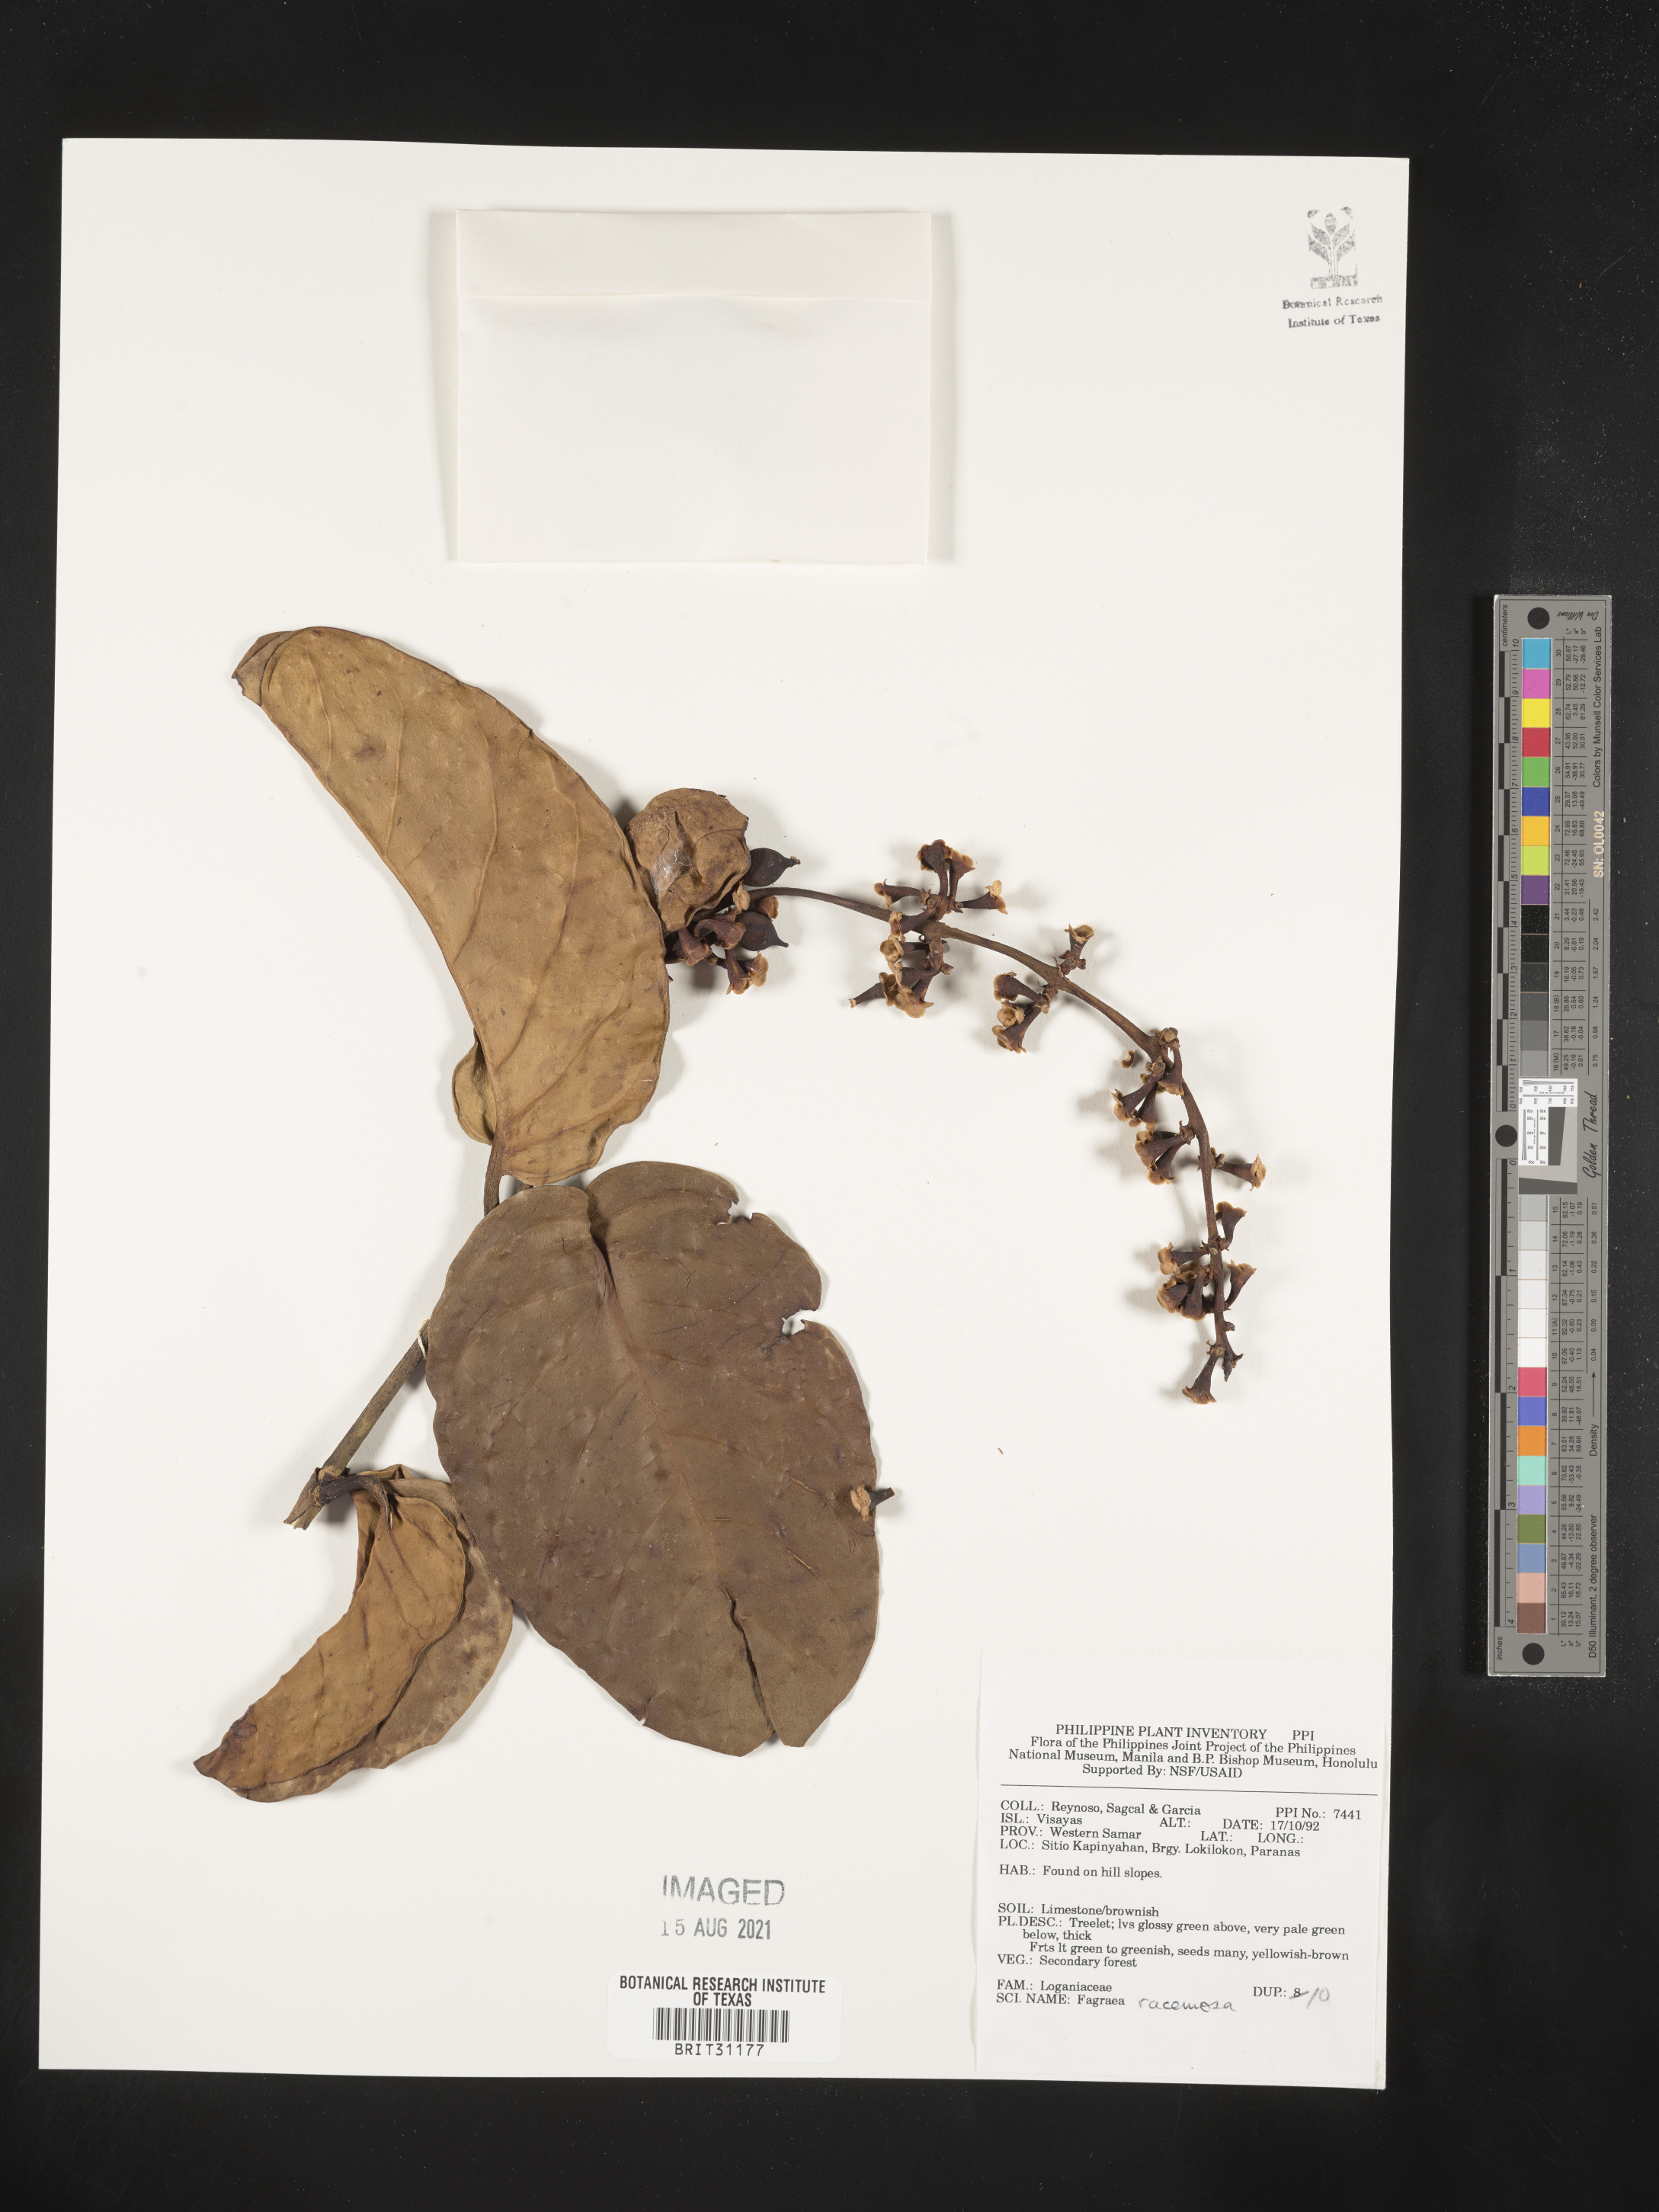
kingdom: Plantae
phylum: Tracheophyta
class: Magnoliopsida
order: Gentianales
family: Gentianaceae
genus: Utania
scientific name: Utania racemosa
